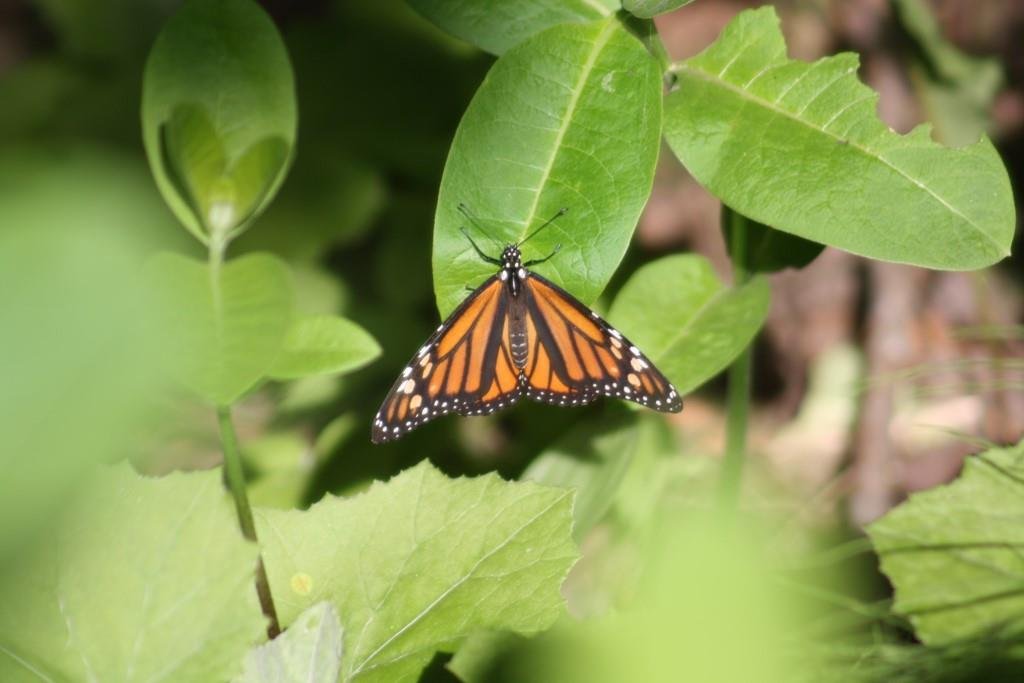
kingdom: Animalia
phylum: Arthropoda
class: Insecta
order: Lepidoptera
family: Nymphalidae
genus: Danaus
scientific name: Danaus plexippus
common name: Monarch
